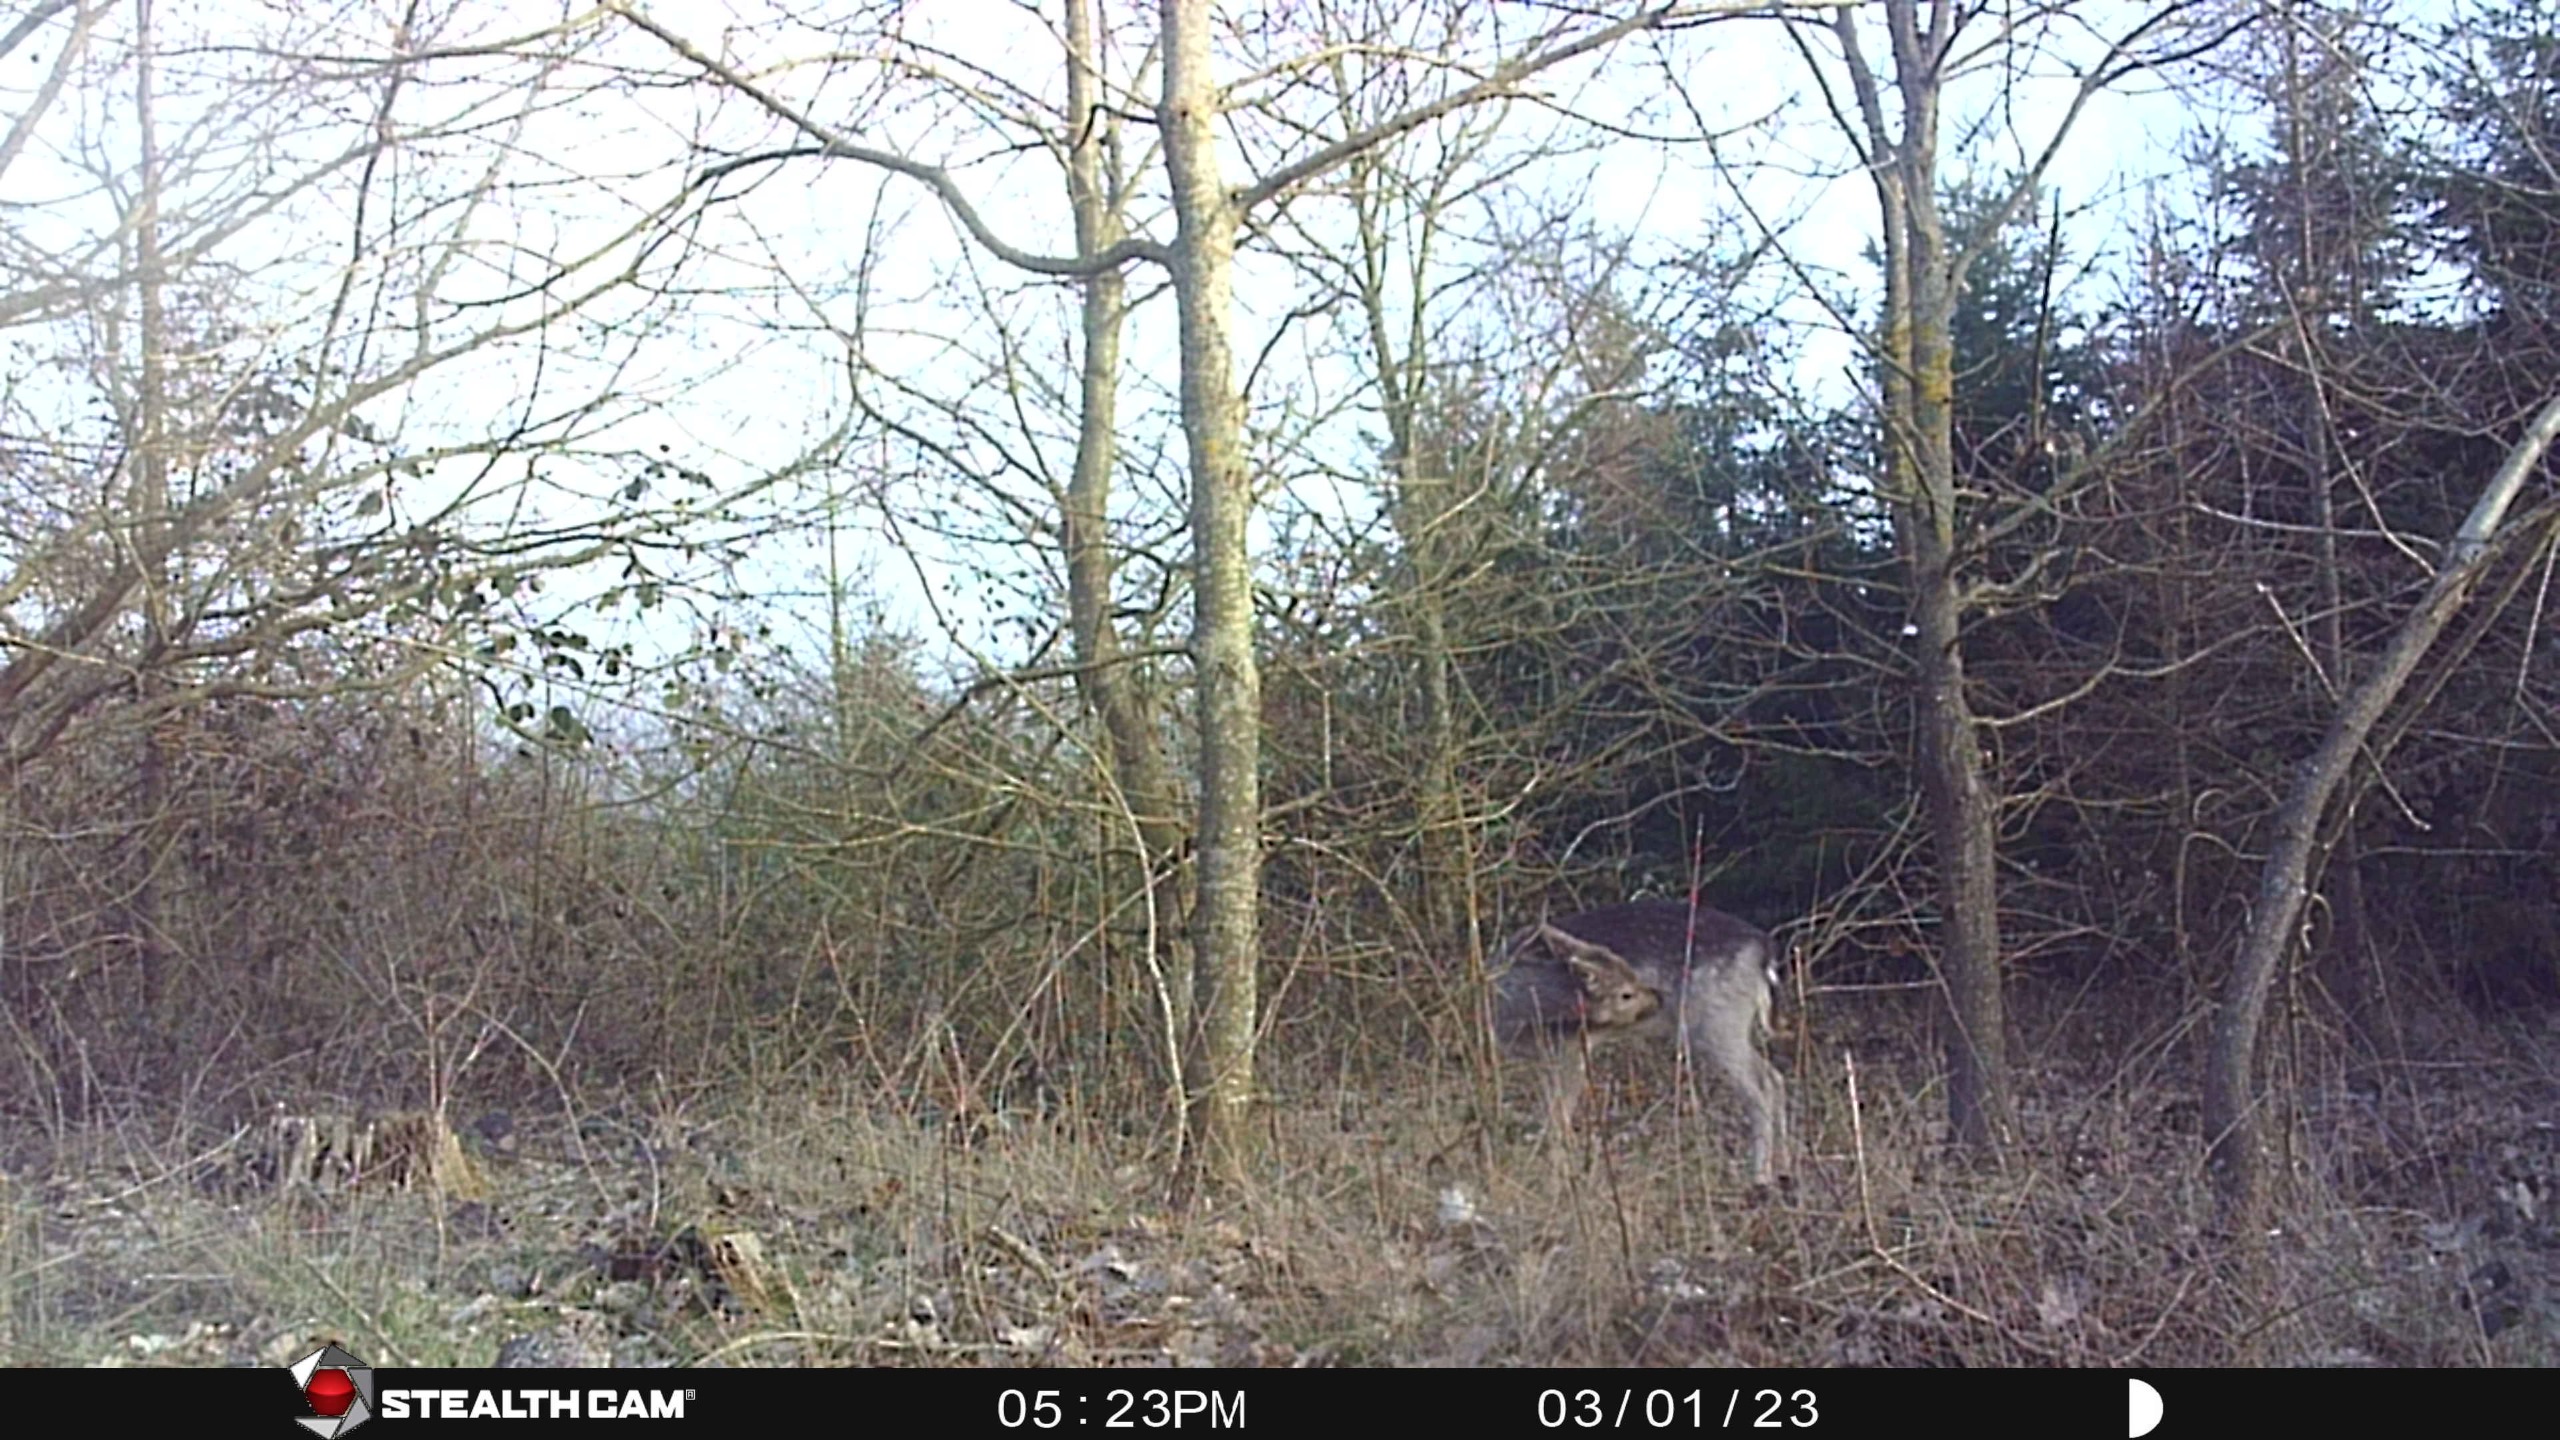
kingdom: Animalia
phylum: Chordata
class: Mammalia
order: Artiodactyla
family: Cervidae
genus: Dama
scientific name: Dama dama
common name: Dådyr
